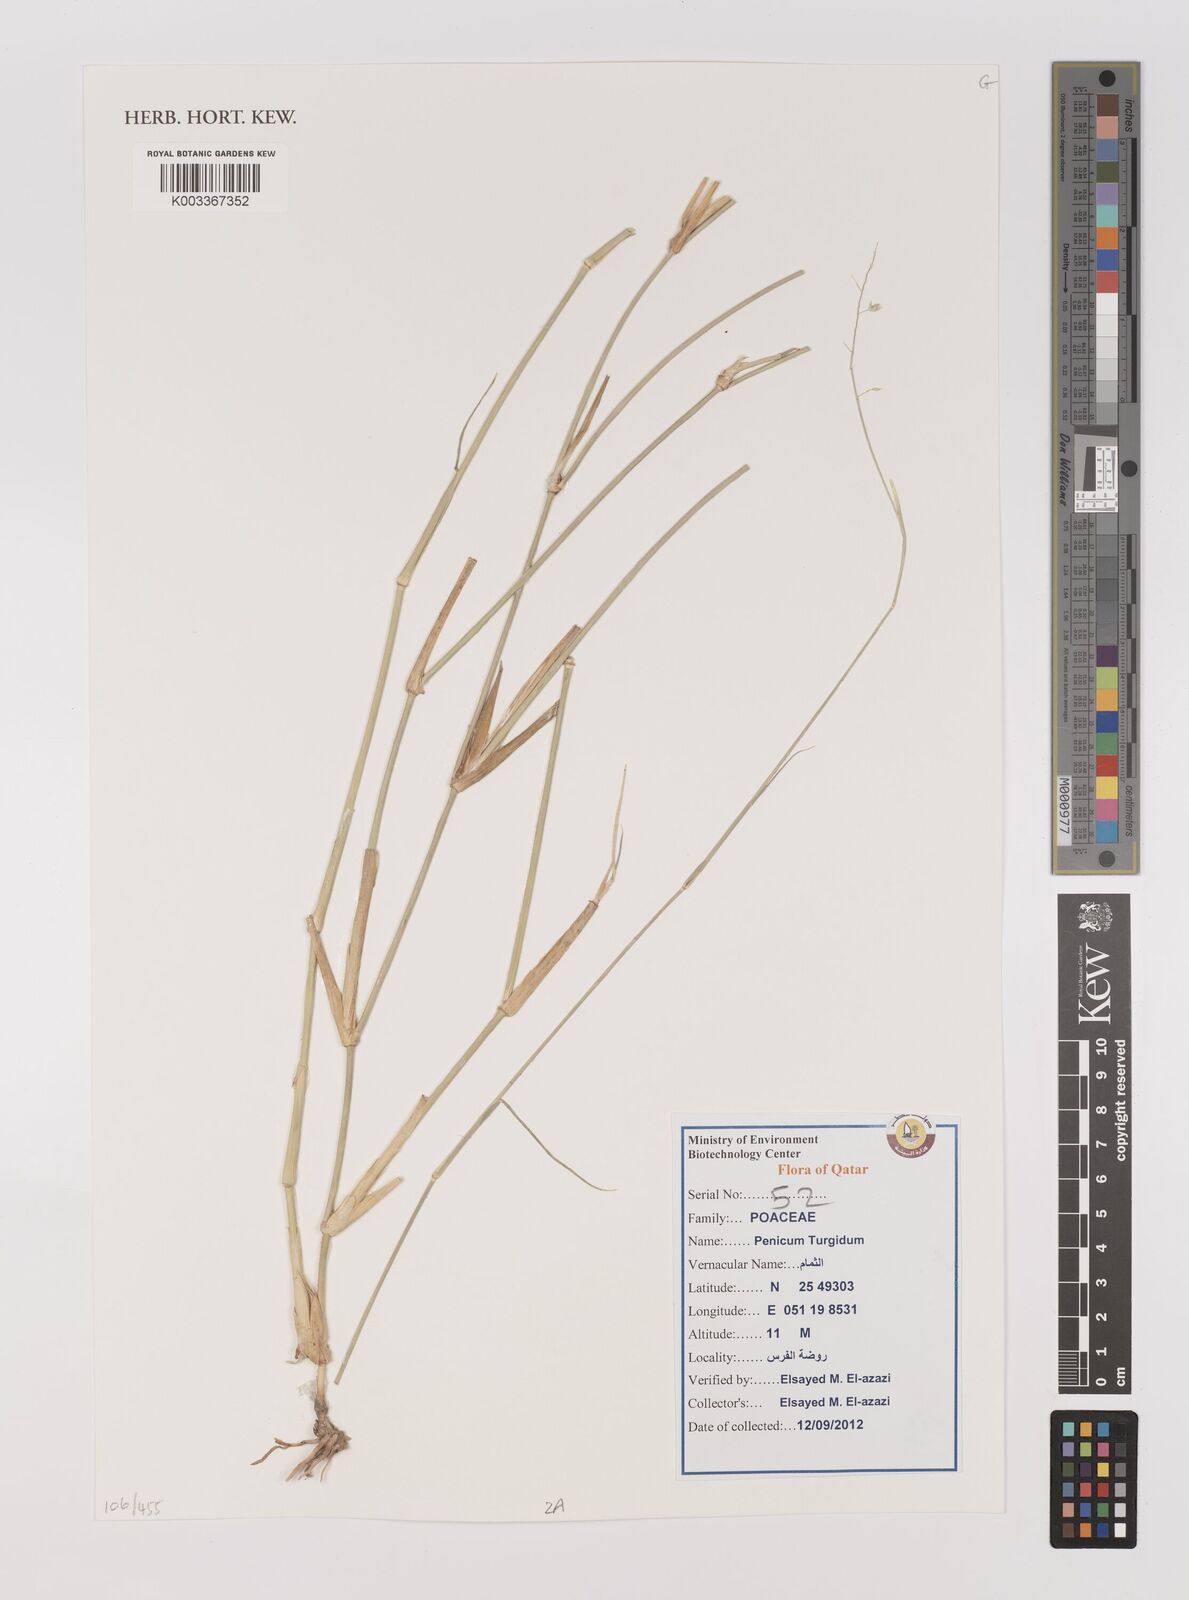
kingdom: Plantae
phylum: Tracheophyta
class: Liliopsida
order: Poales
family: Poaceae
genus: Panicum
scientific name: Panicum turgidum
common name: Desert grass
